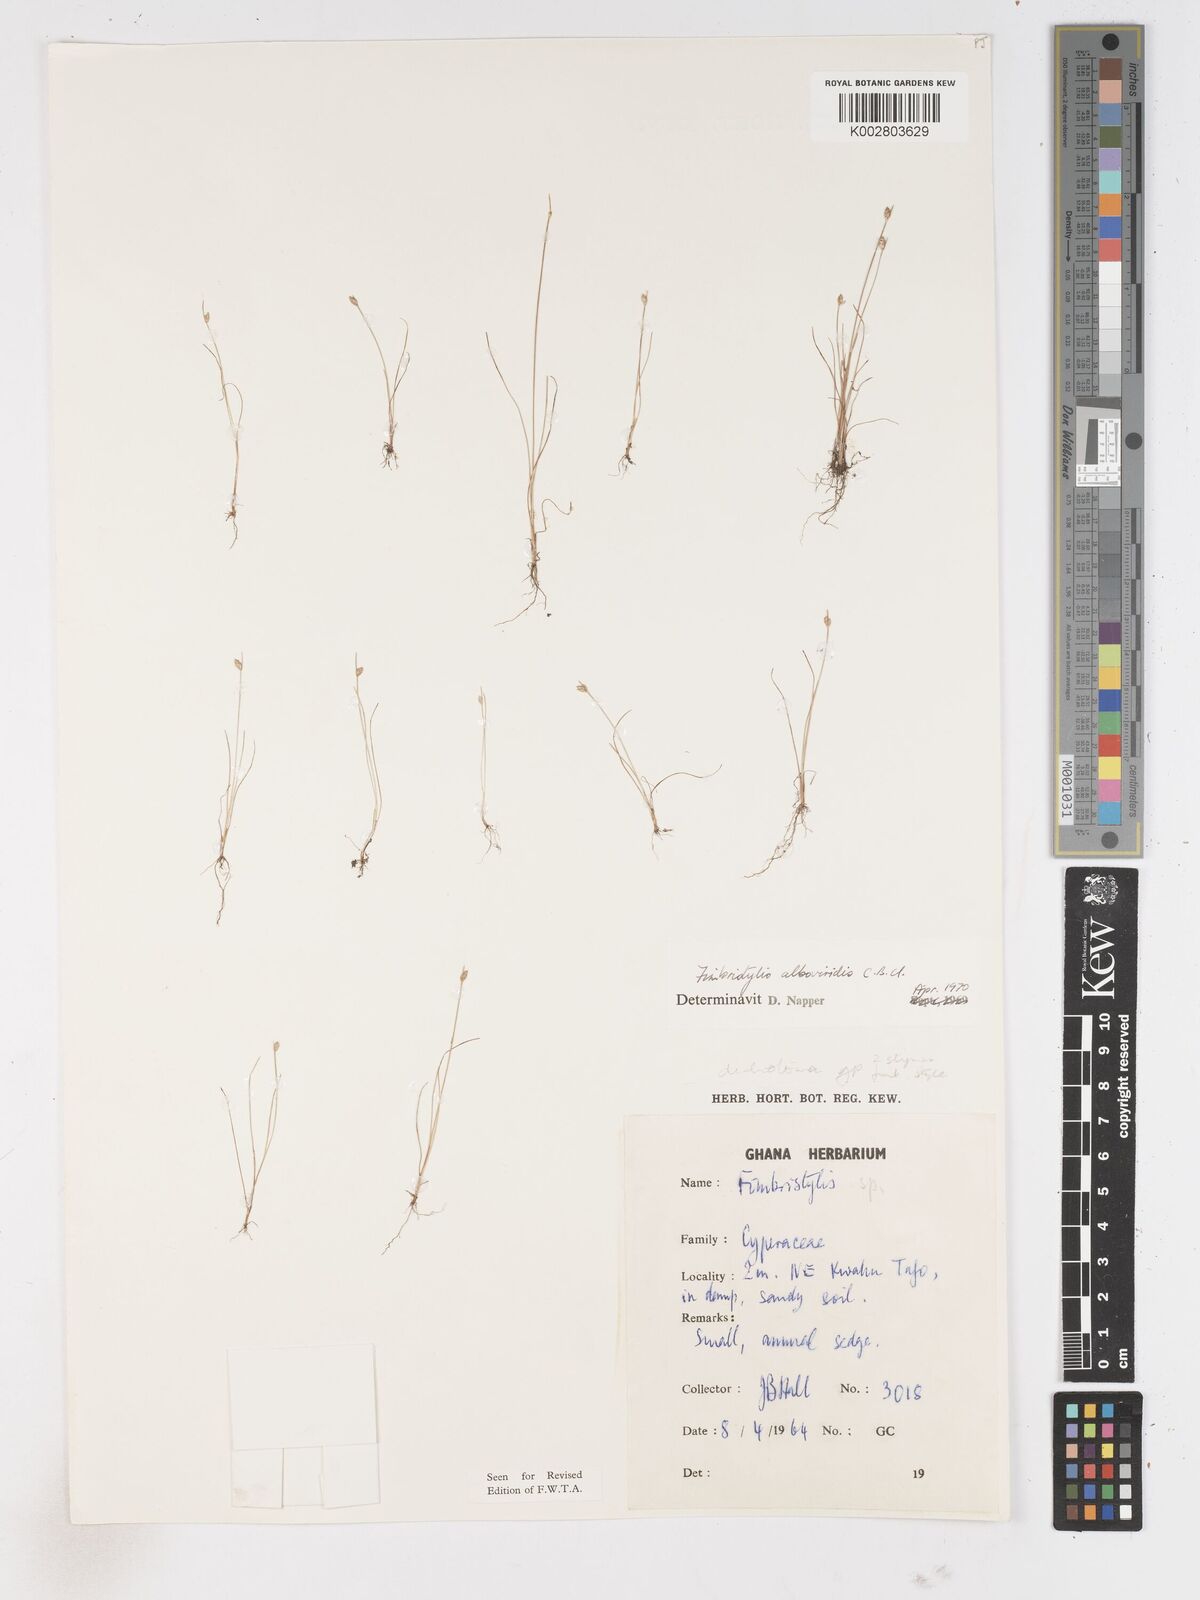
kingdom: Plantae
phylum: Tracheophyta
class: Liliopsida
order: Poales
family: Cyperaceae
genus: Fimbristylis
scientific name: Fimbristylis alboviridis
